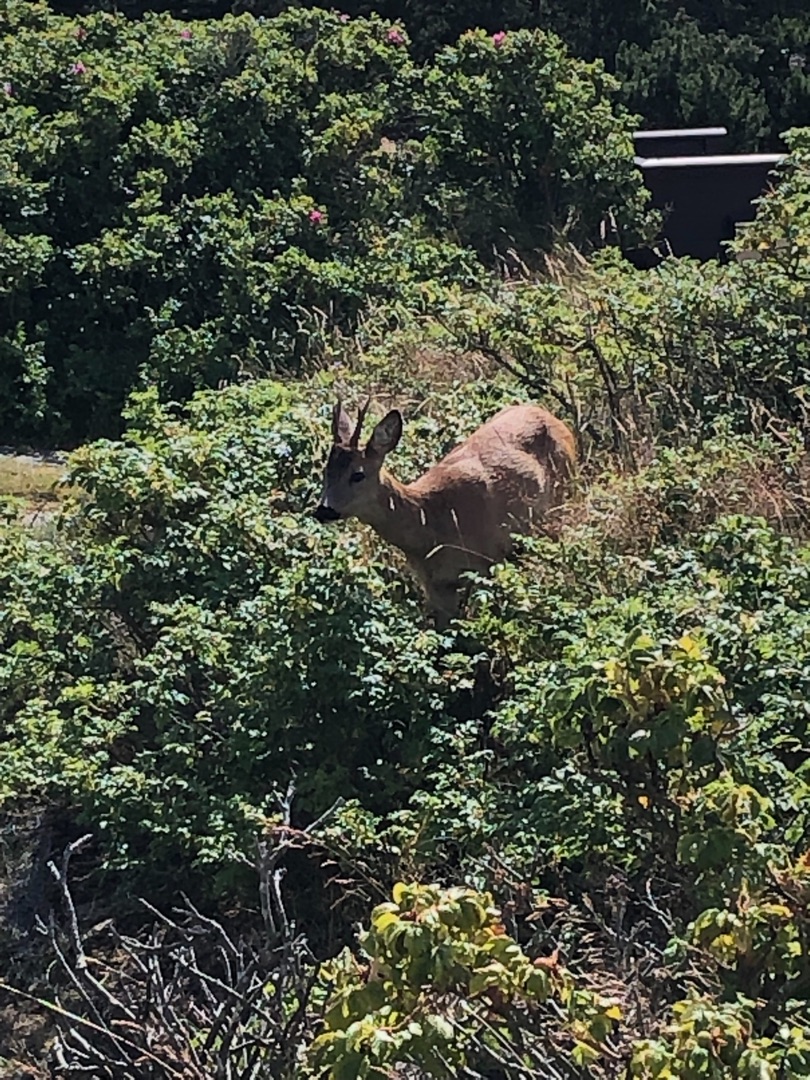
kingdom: Animalia
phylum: Chordata
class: Mammalia
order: Artiodactyla
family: Cervidae
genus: Capreolus
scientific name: Capreolus capreolus
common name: Rådyr
